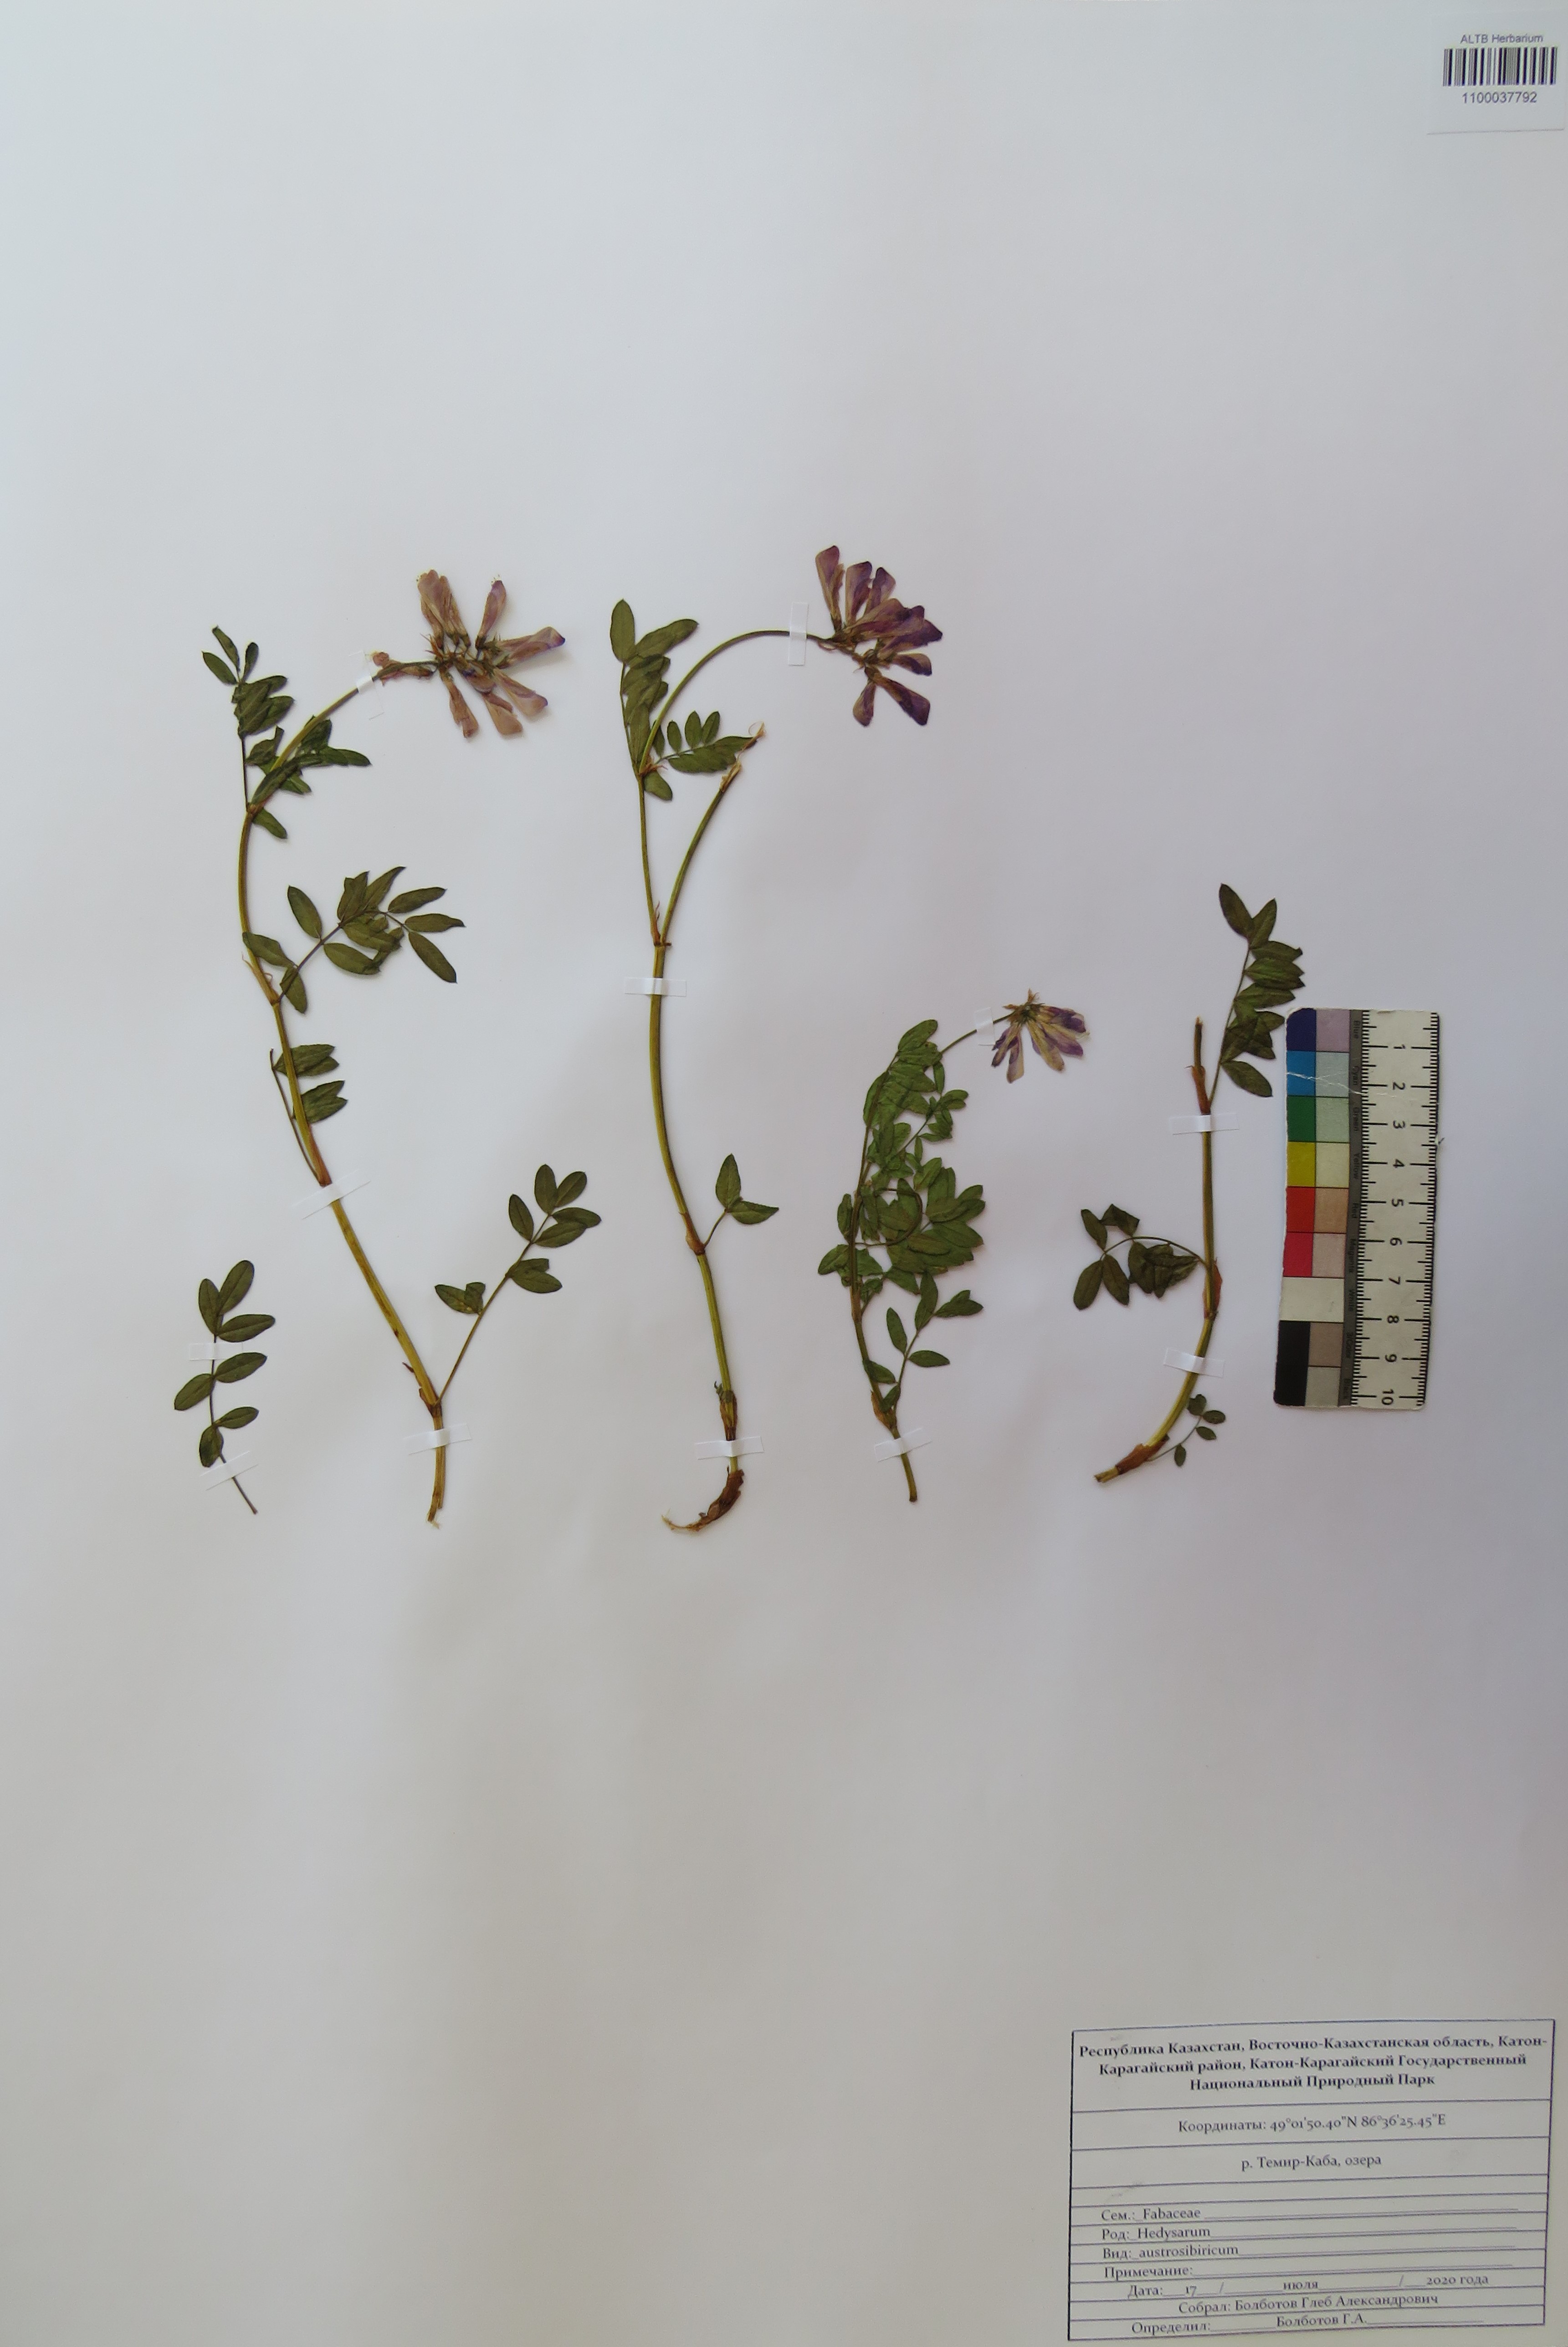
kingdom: Plantae
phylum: Tracheophyta
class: Magnoliopsida
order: Fabales
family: Fabaceae
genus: Hedysarum
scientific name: Hedysarum neglectum
